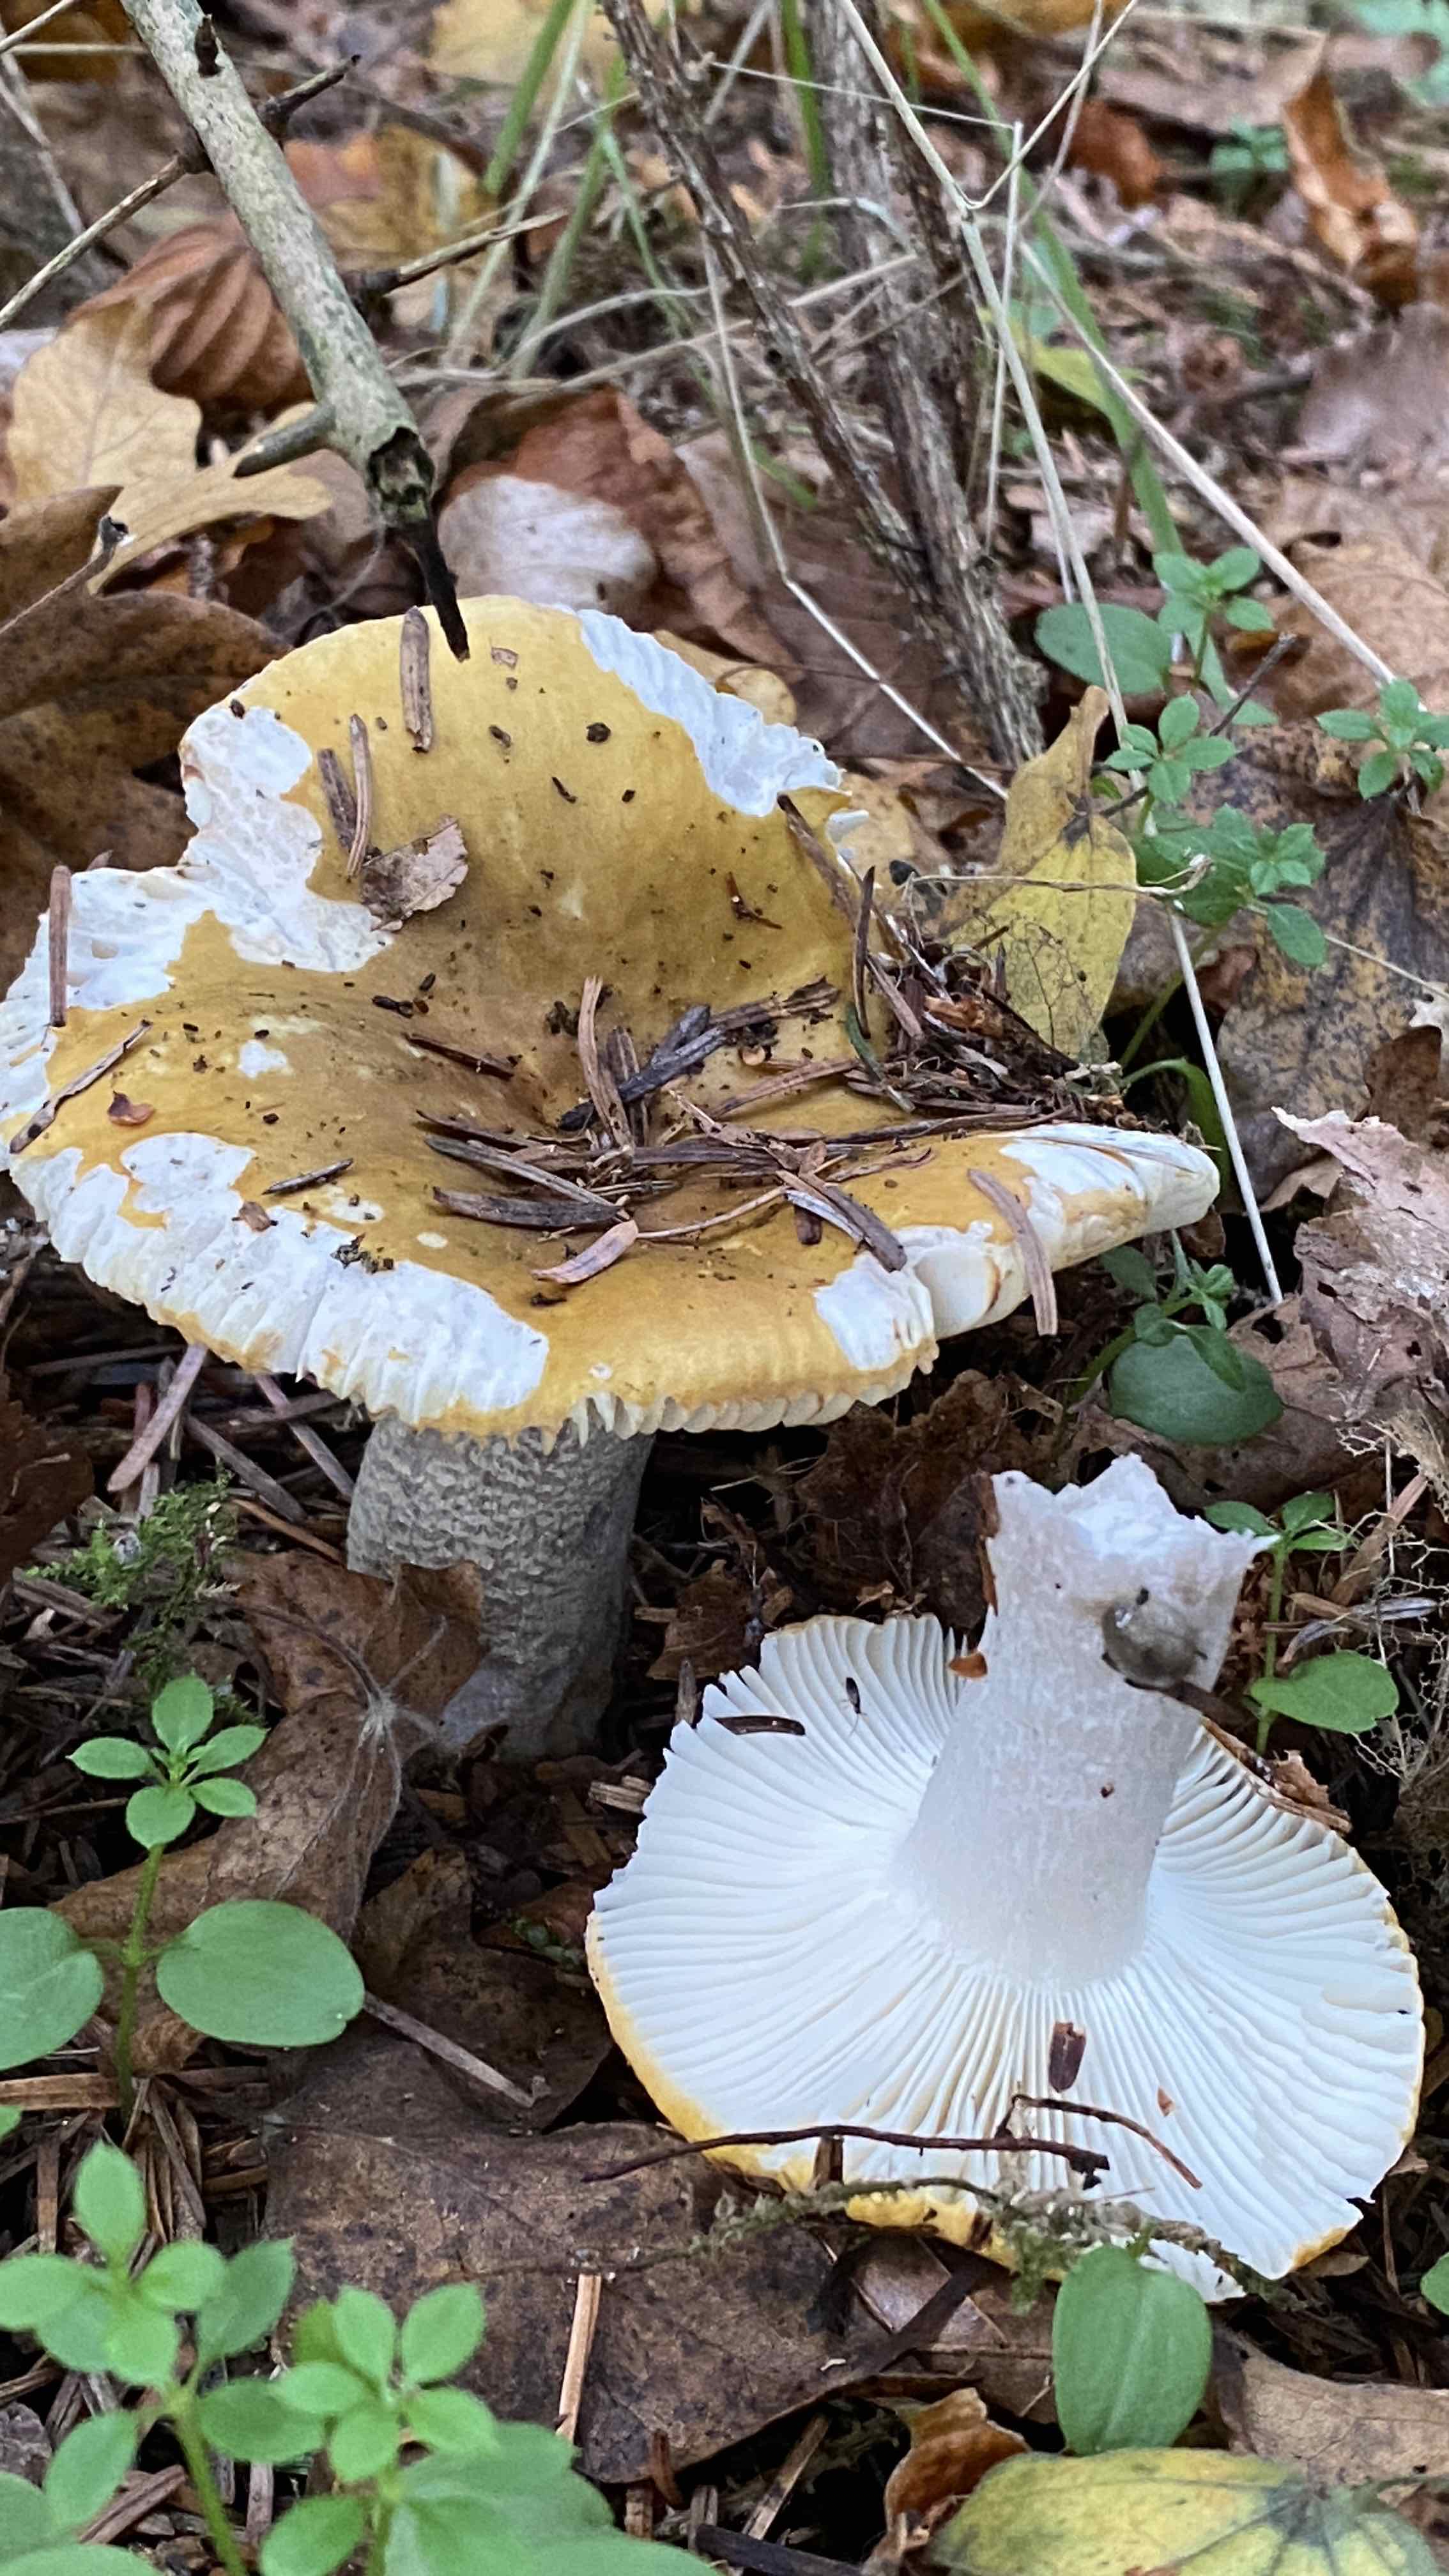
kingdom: Fungi
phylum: Basidiomycota
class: Agaricomycetes
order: Russulales
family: Russulaceae
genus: Russula
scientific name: Russula ochroleuca
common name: okkergul skørhat
